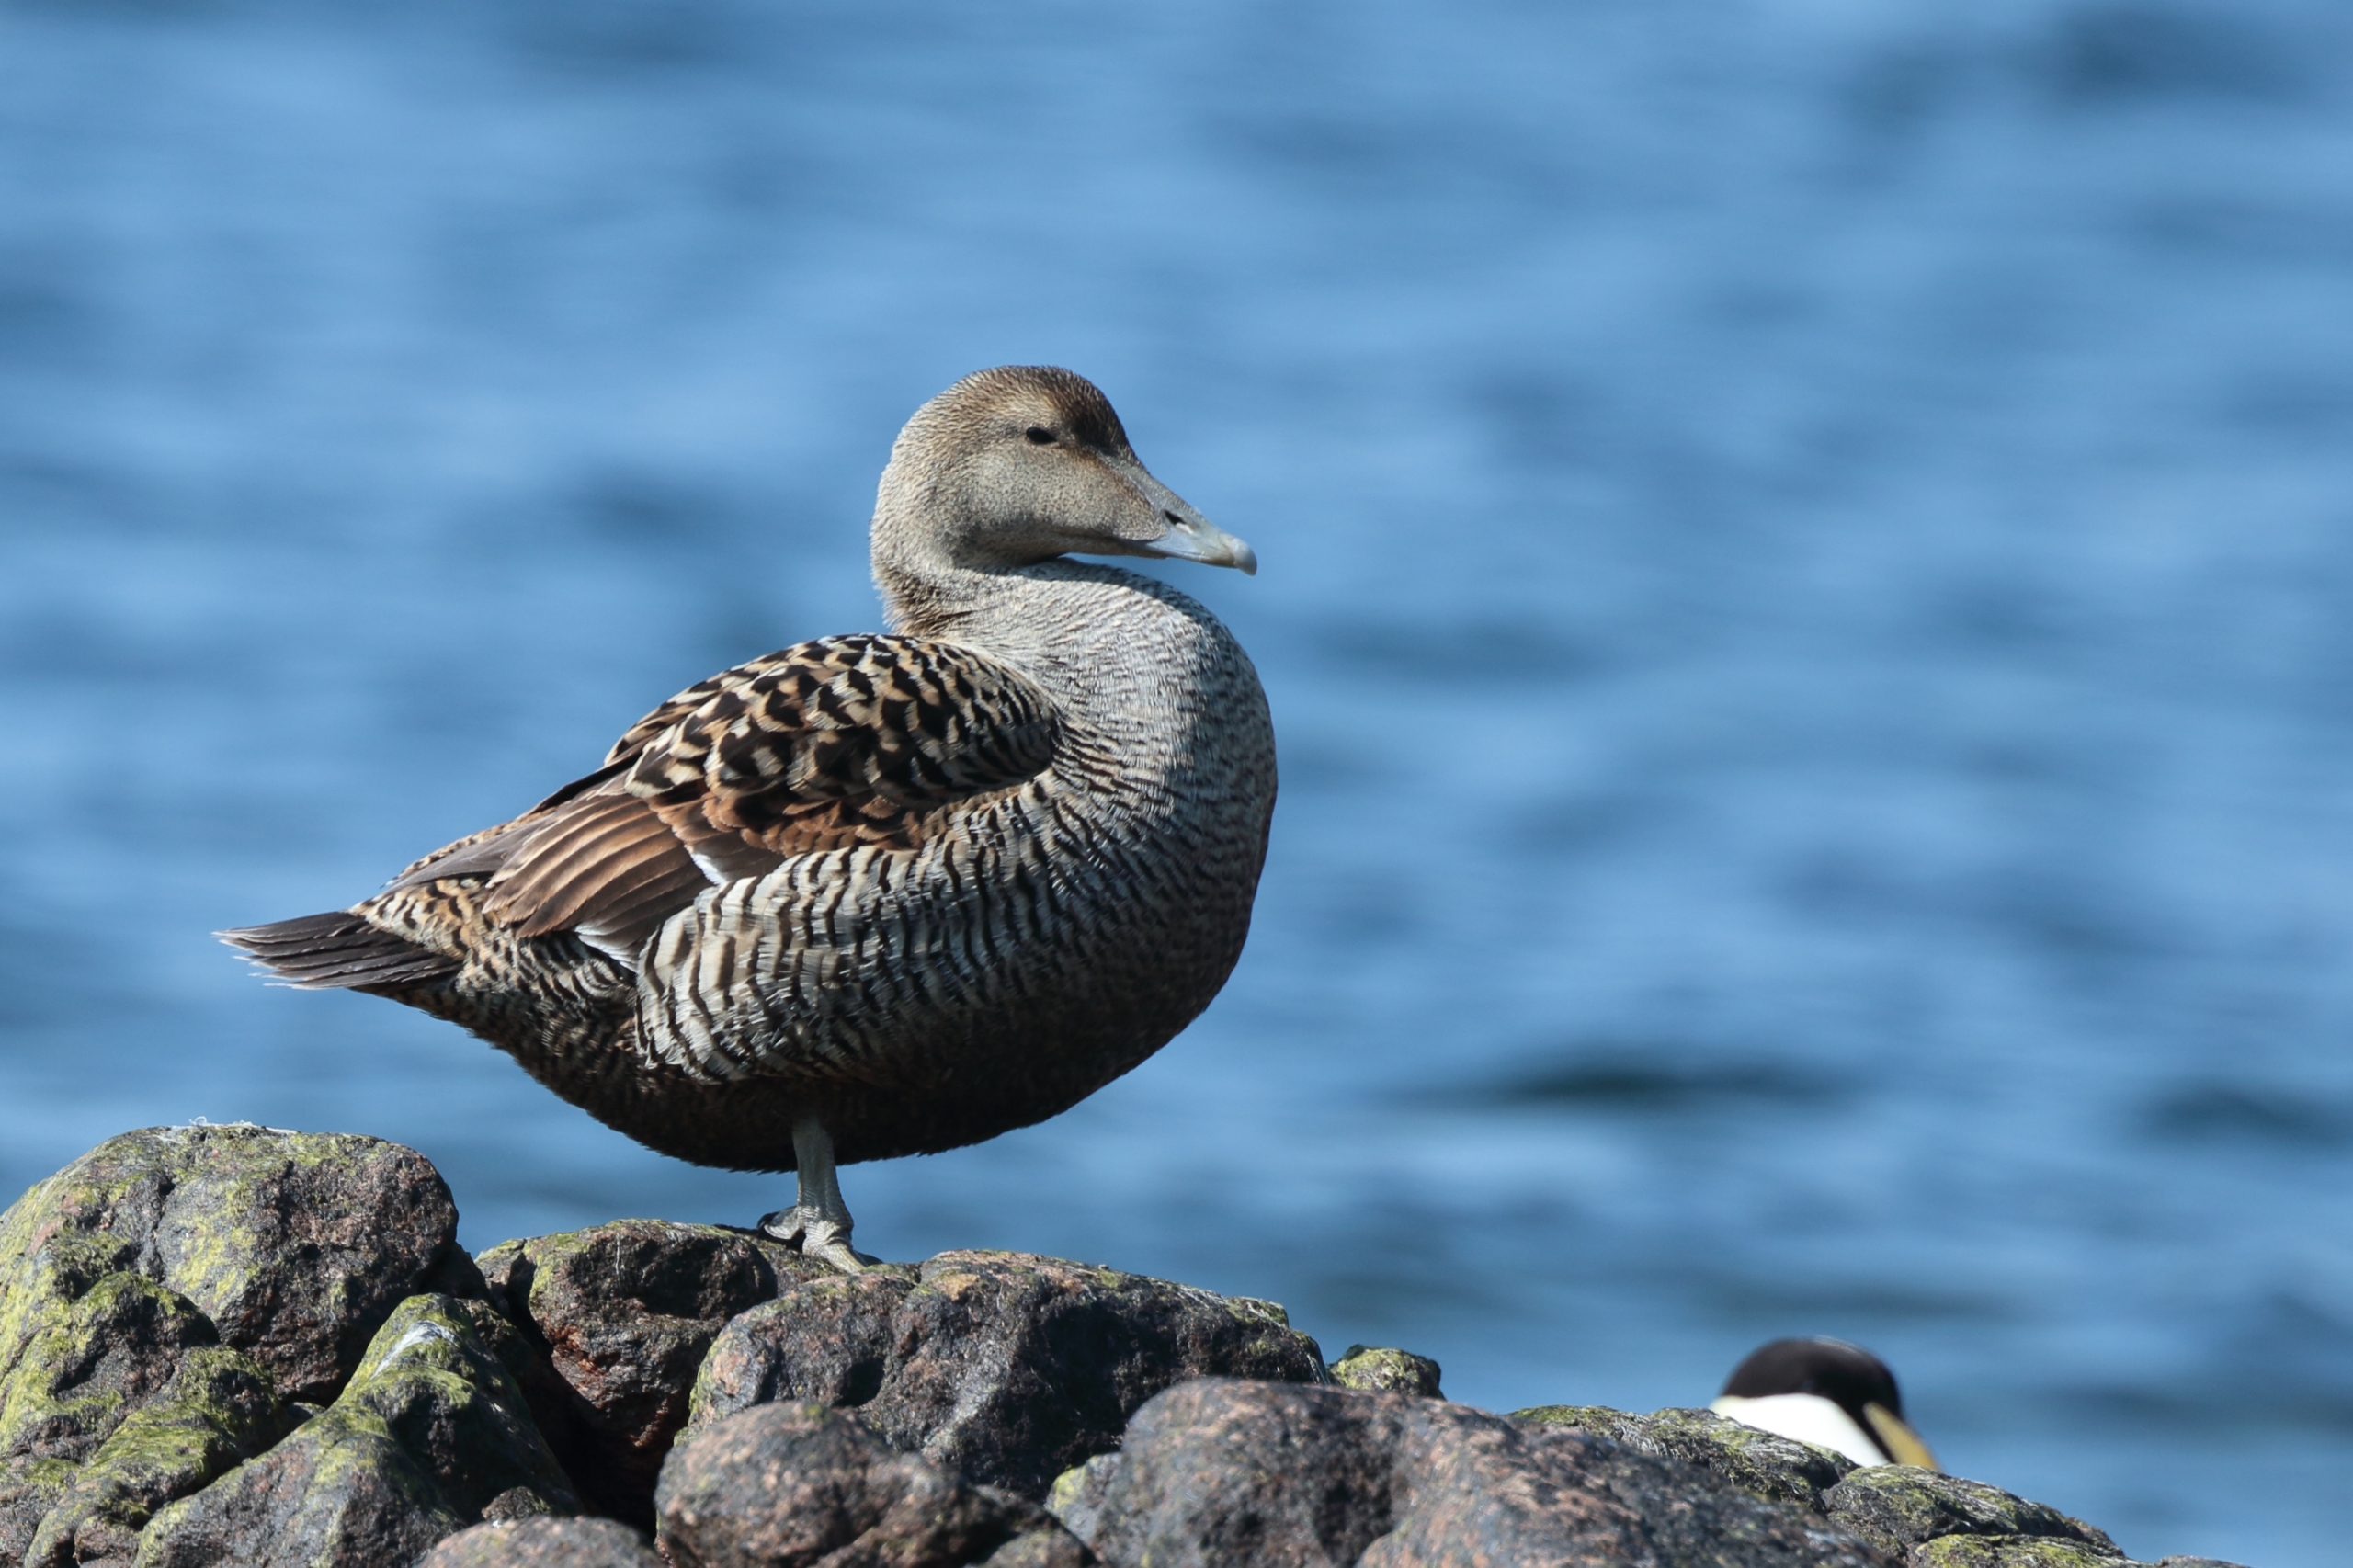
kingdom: Animalia
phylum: Chordata
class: Aves
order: Anseriformes
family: Anatidae
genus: Somateria
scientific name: Somateria mollissima
